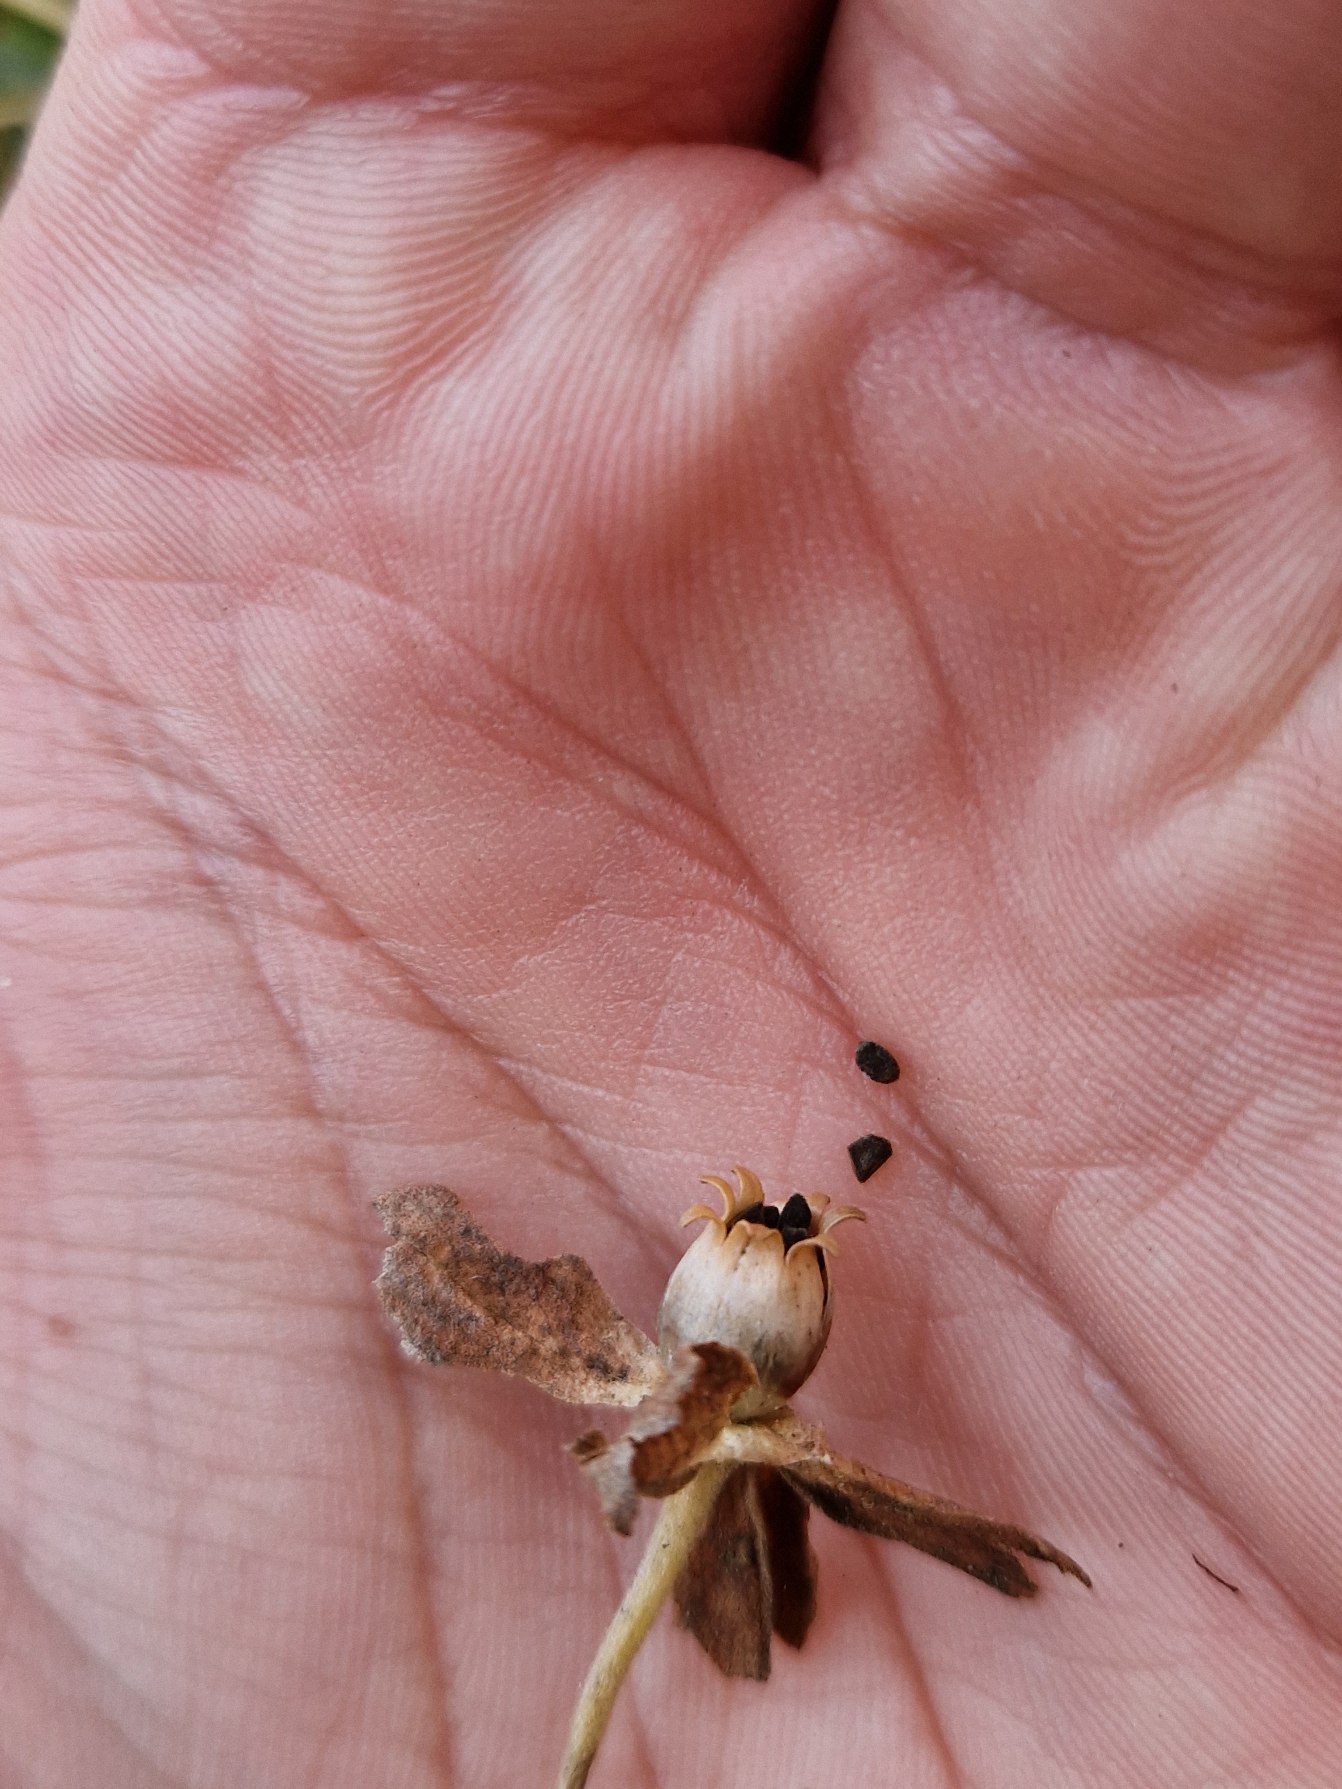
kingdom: Plantae
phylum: Tracheophyta
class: Magnoliopsida
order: Ericales
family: Primulaceae
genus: Primula
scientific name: Primula veris
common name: Hulkravet kodriver
